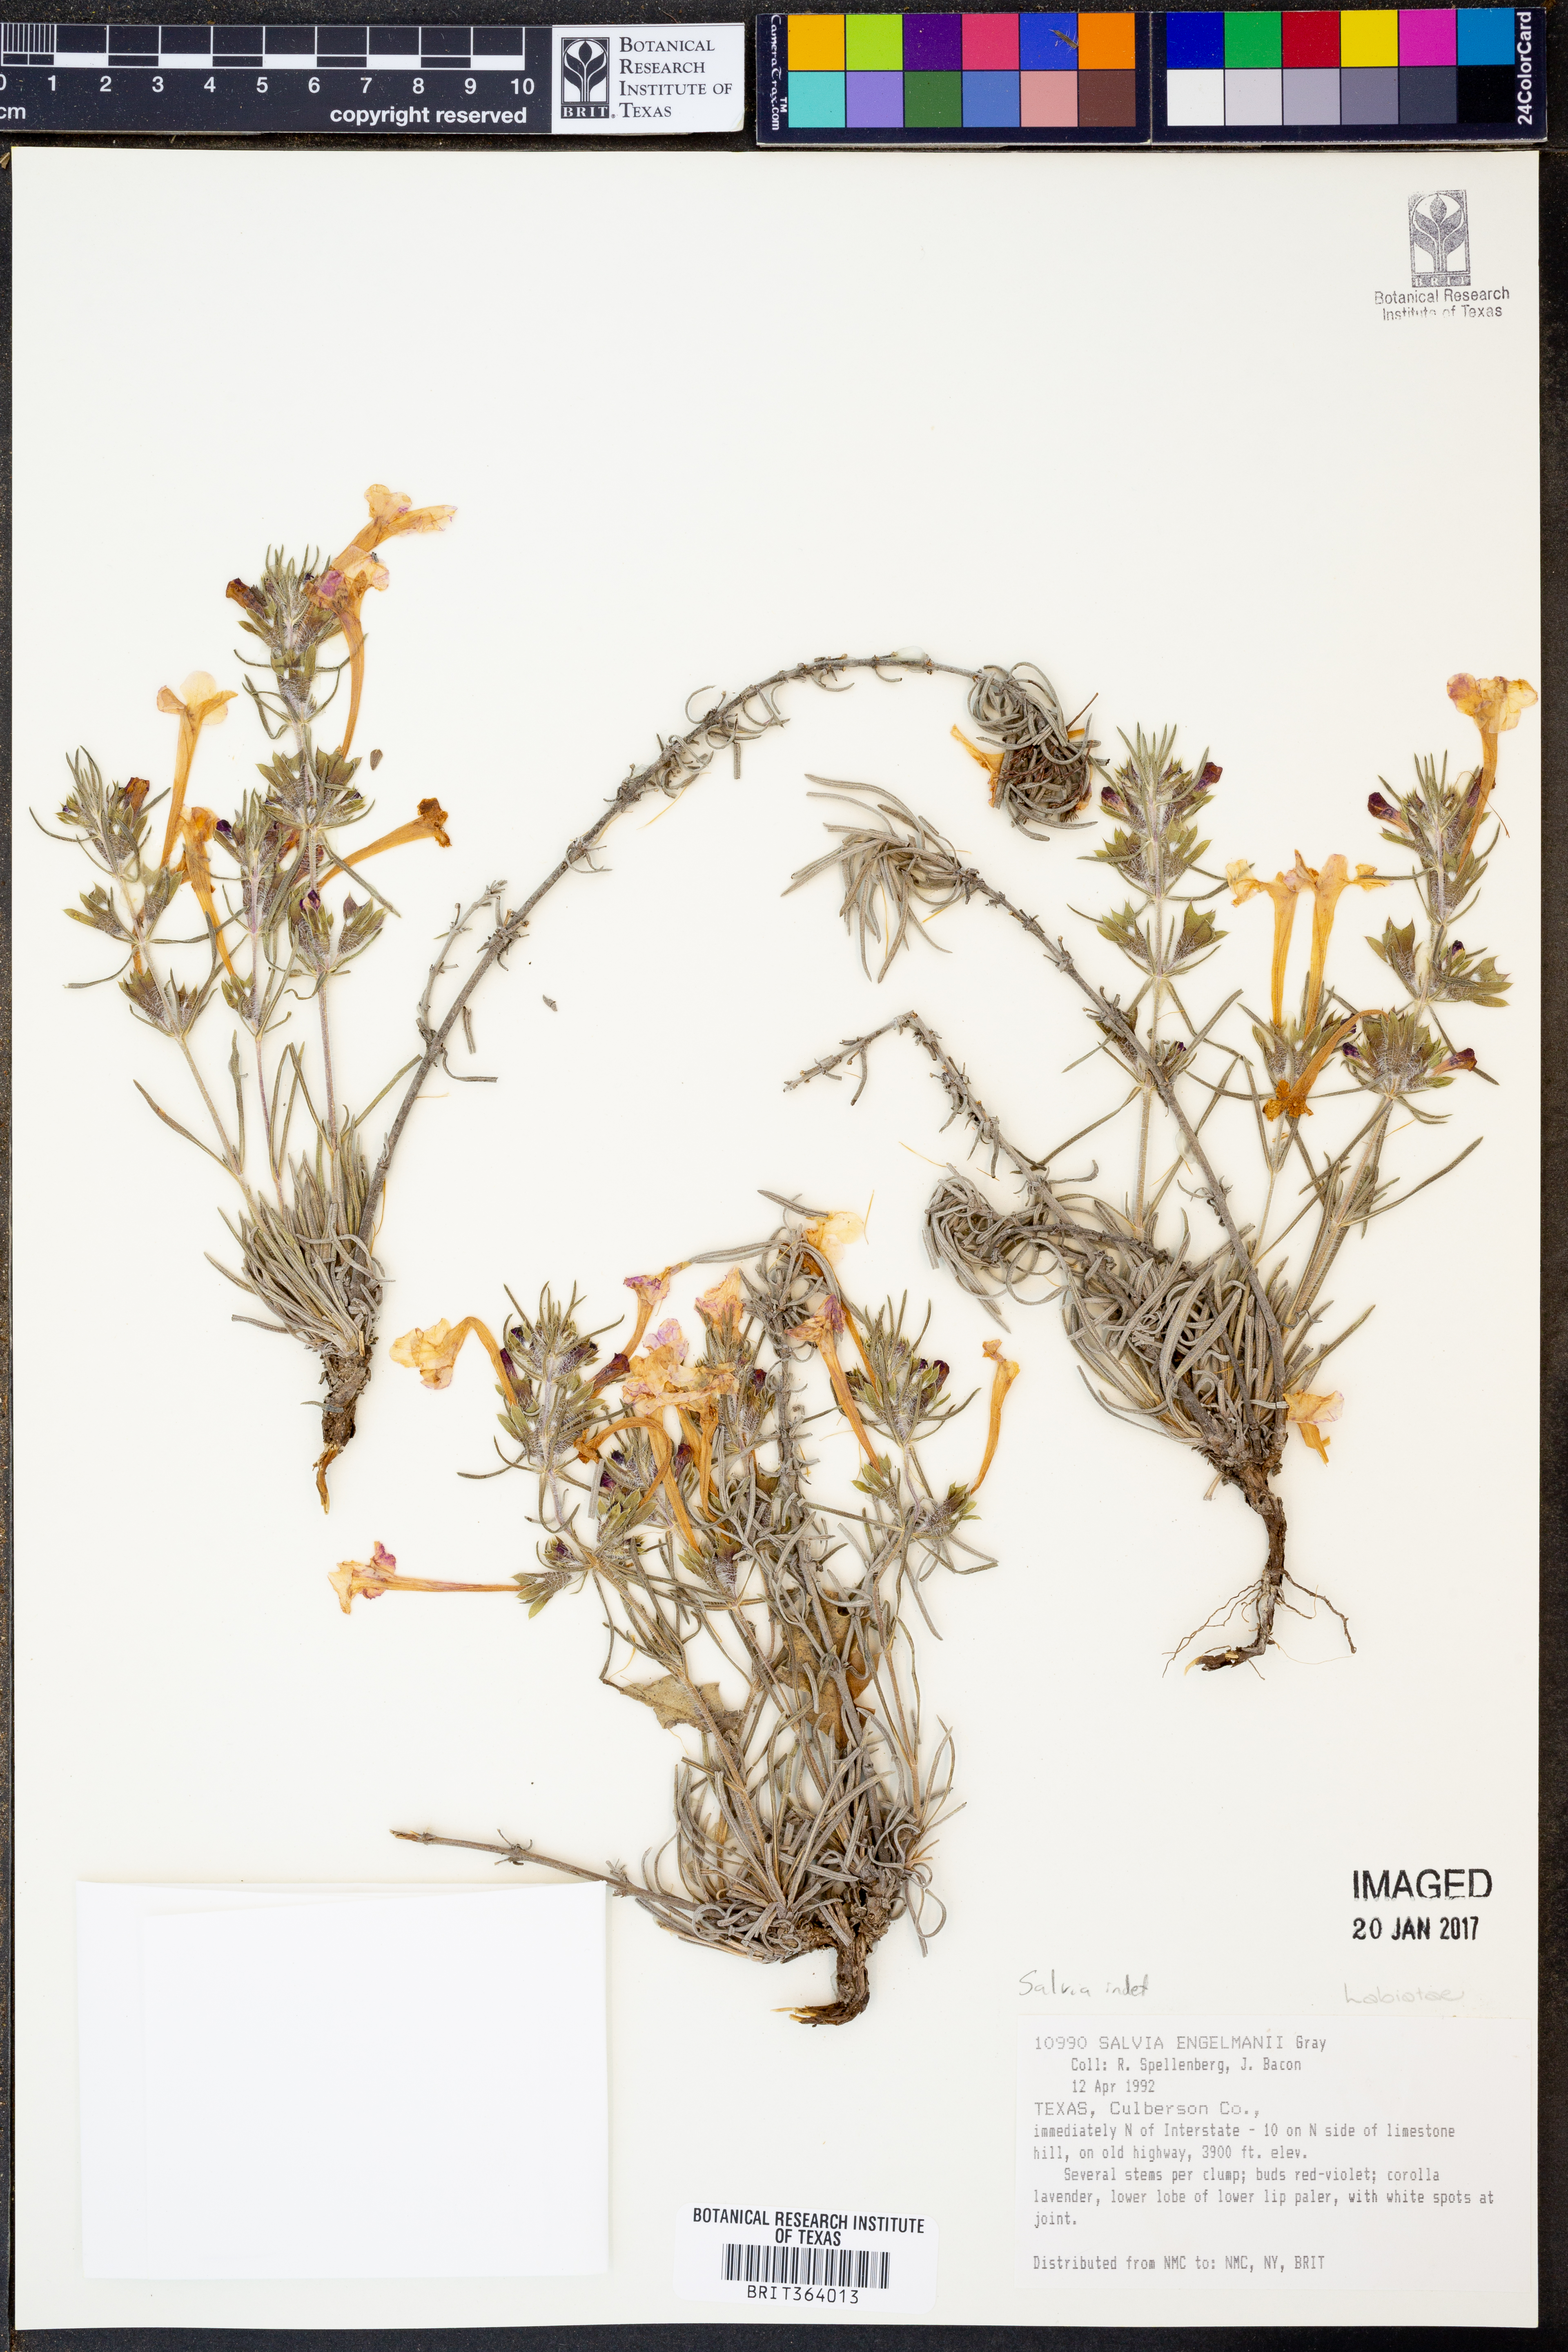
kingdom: Plantae
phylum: Tracheophyta
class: Magnoliopsida
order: Lamiales
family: Lamiaceae
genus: Salvia
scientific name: Salvia engelmannii
